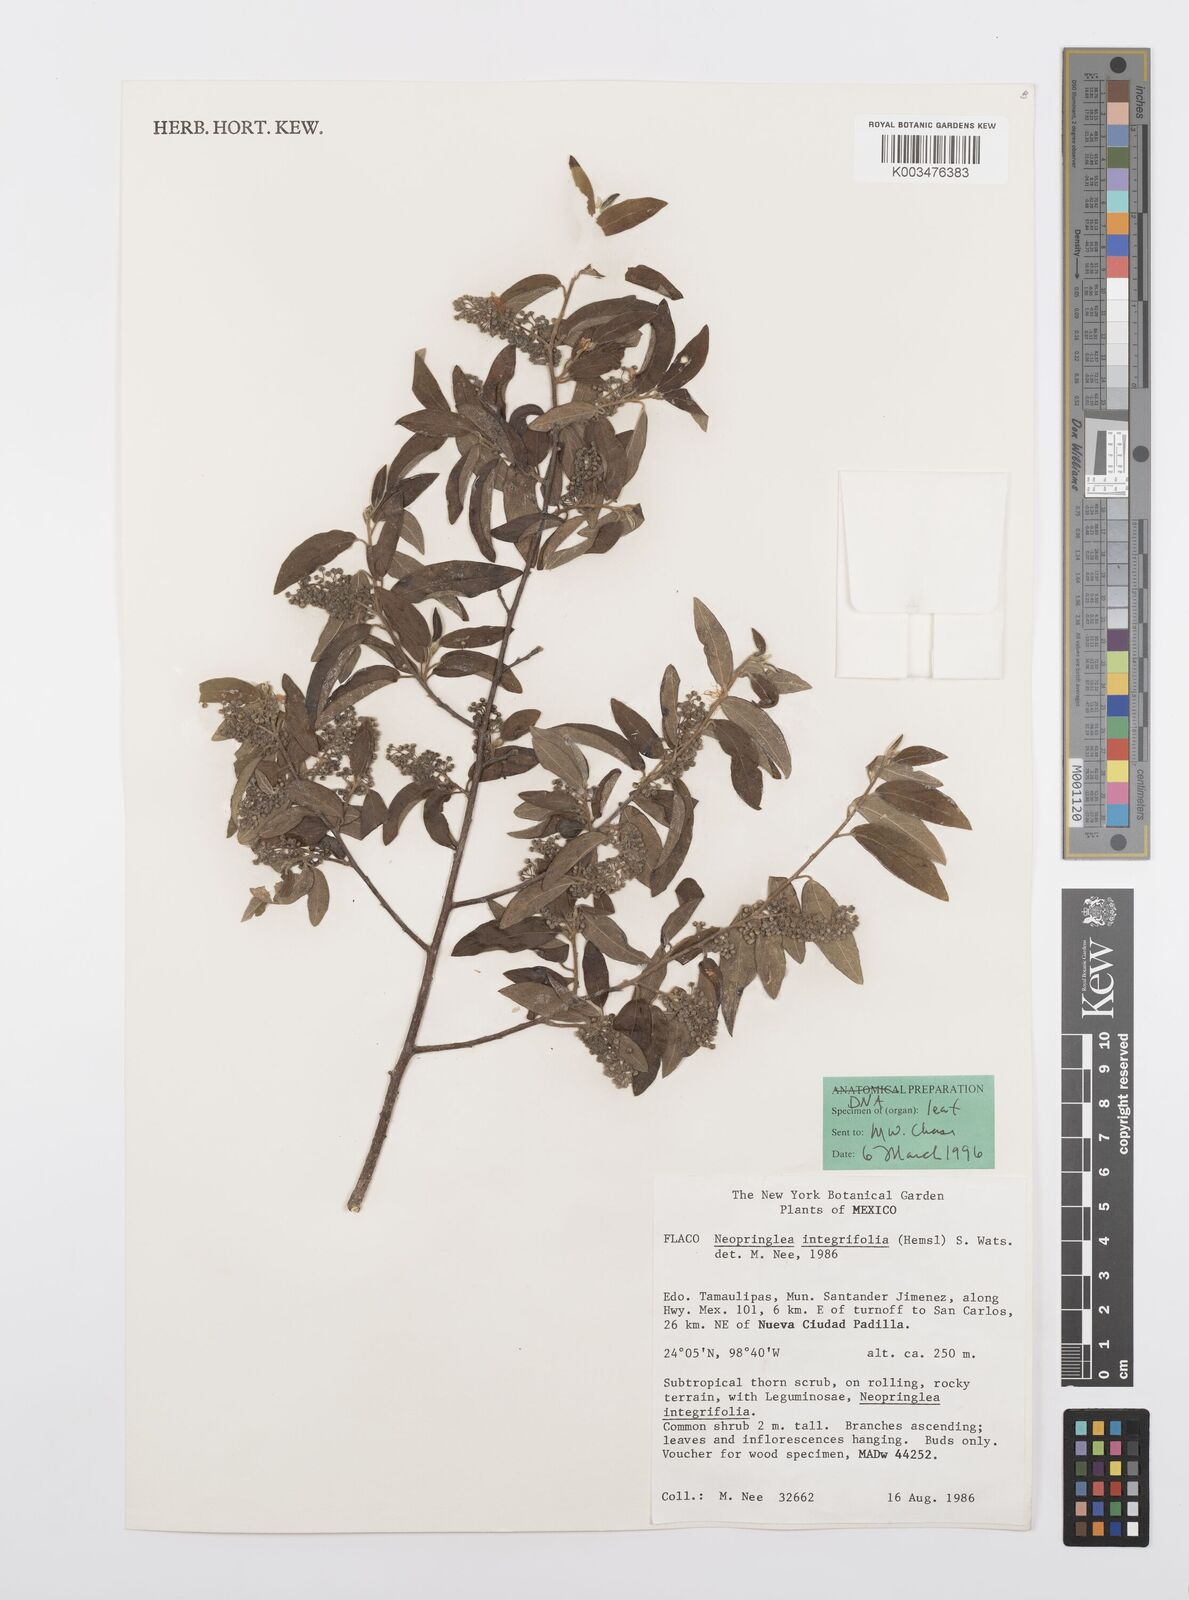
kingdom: Plantae
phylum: Tracheophyta
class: Magnoliopsida
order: Malpighiales
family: Salicaceae
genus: Neopringlea
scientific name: Neopringlea integrifolia
